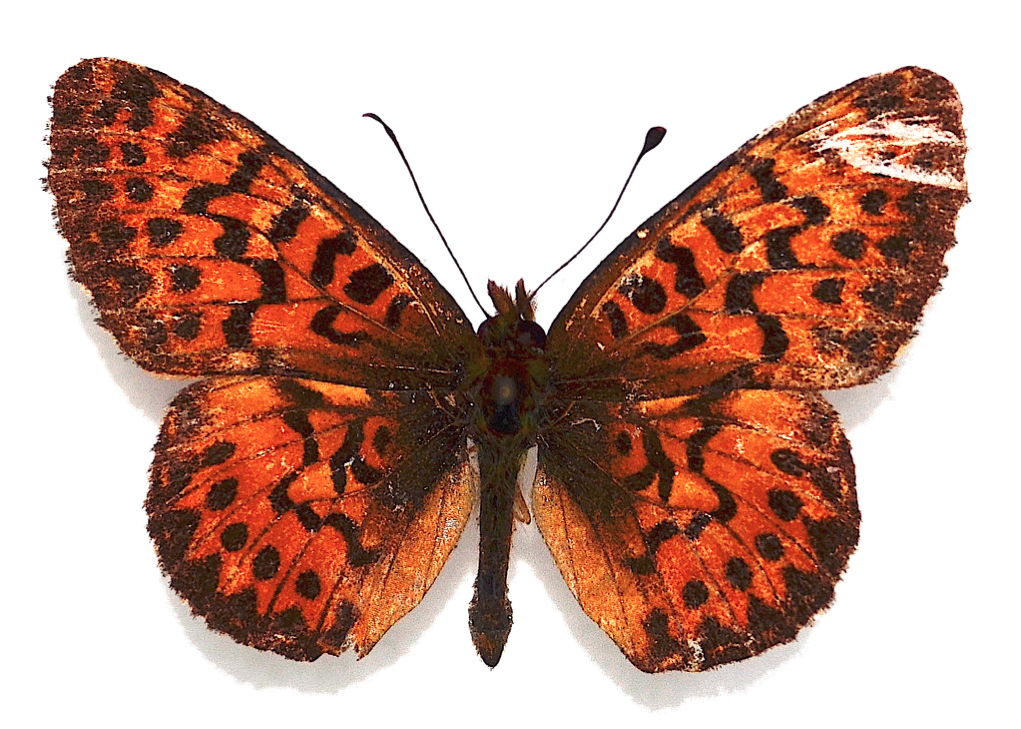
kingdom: Animalia
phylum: Arthropoda
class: Insecta
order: Lepidoptera
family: Nymphalidae
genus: Boloria
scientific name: Boloria chariclea
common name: Arctic Fritillary
